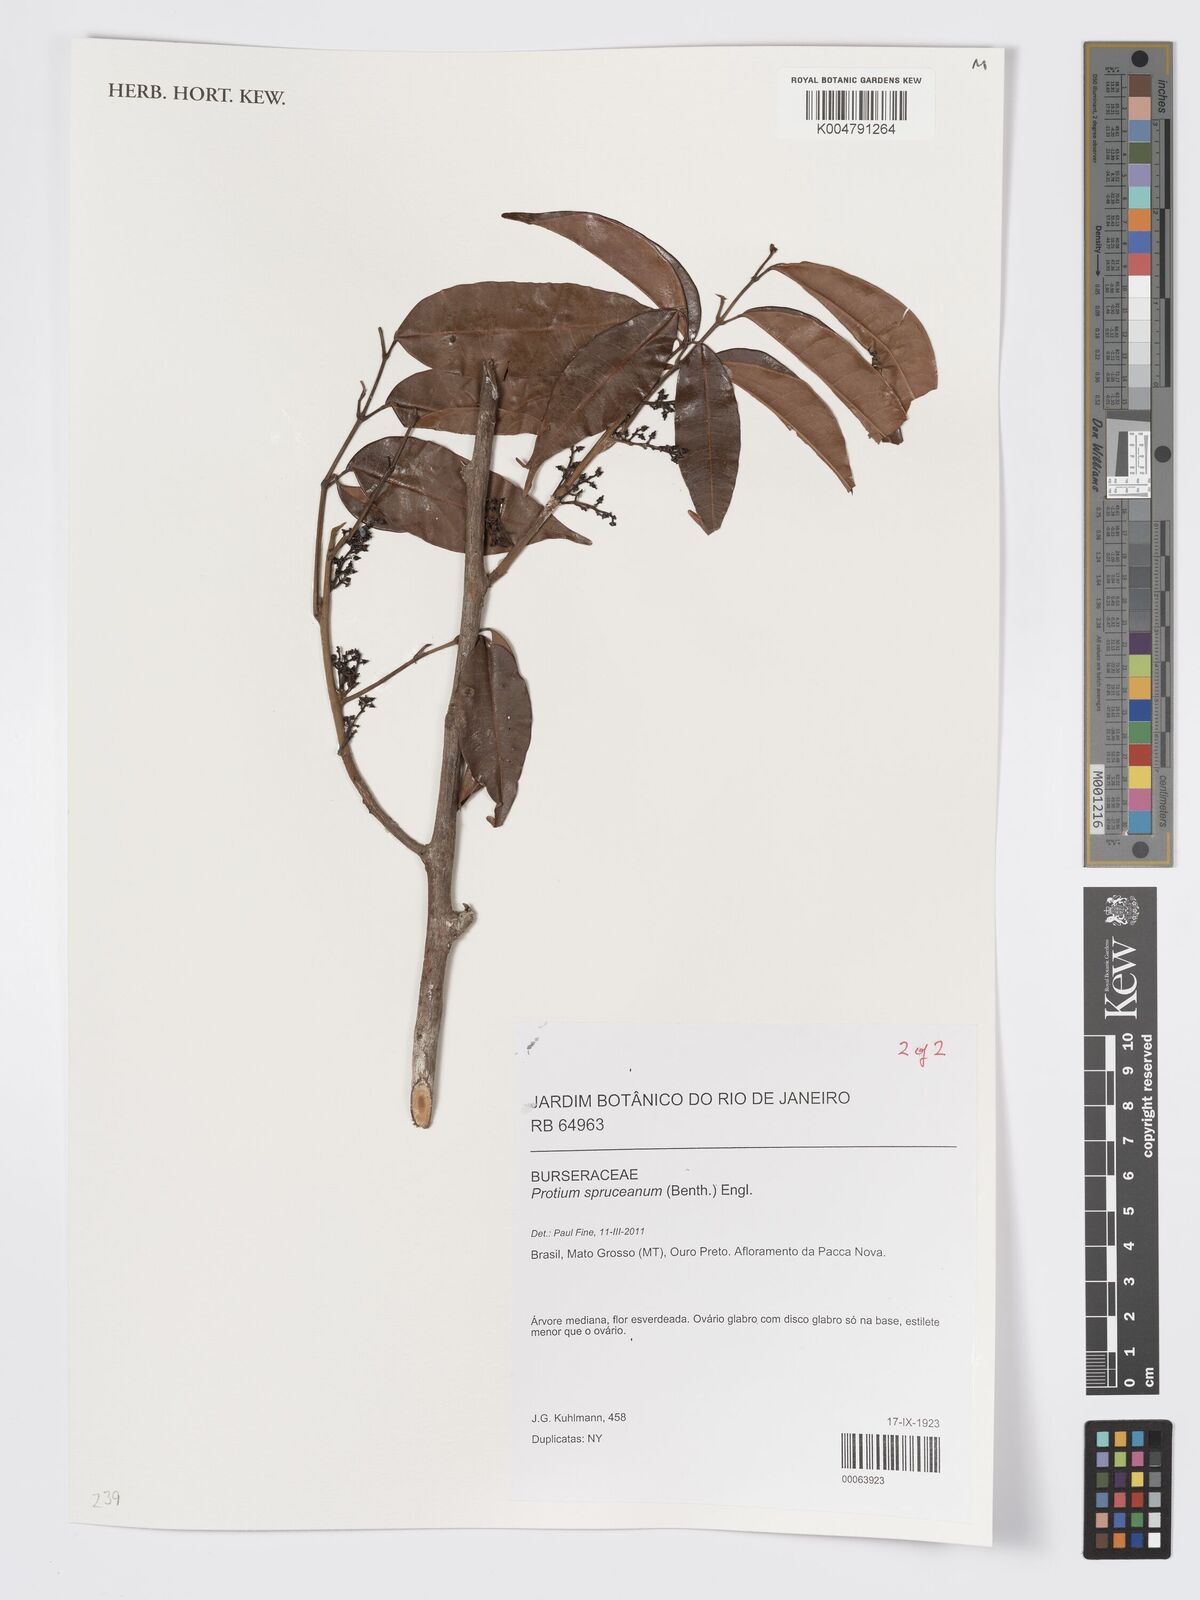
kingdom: Plantae
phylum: Tracheophyta
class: Magnoliopsida
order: Sapindales
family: Burseraceae
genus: Protium
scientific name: Protium spruceanum
